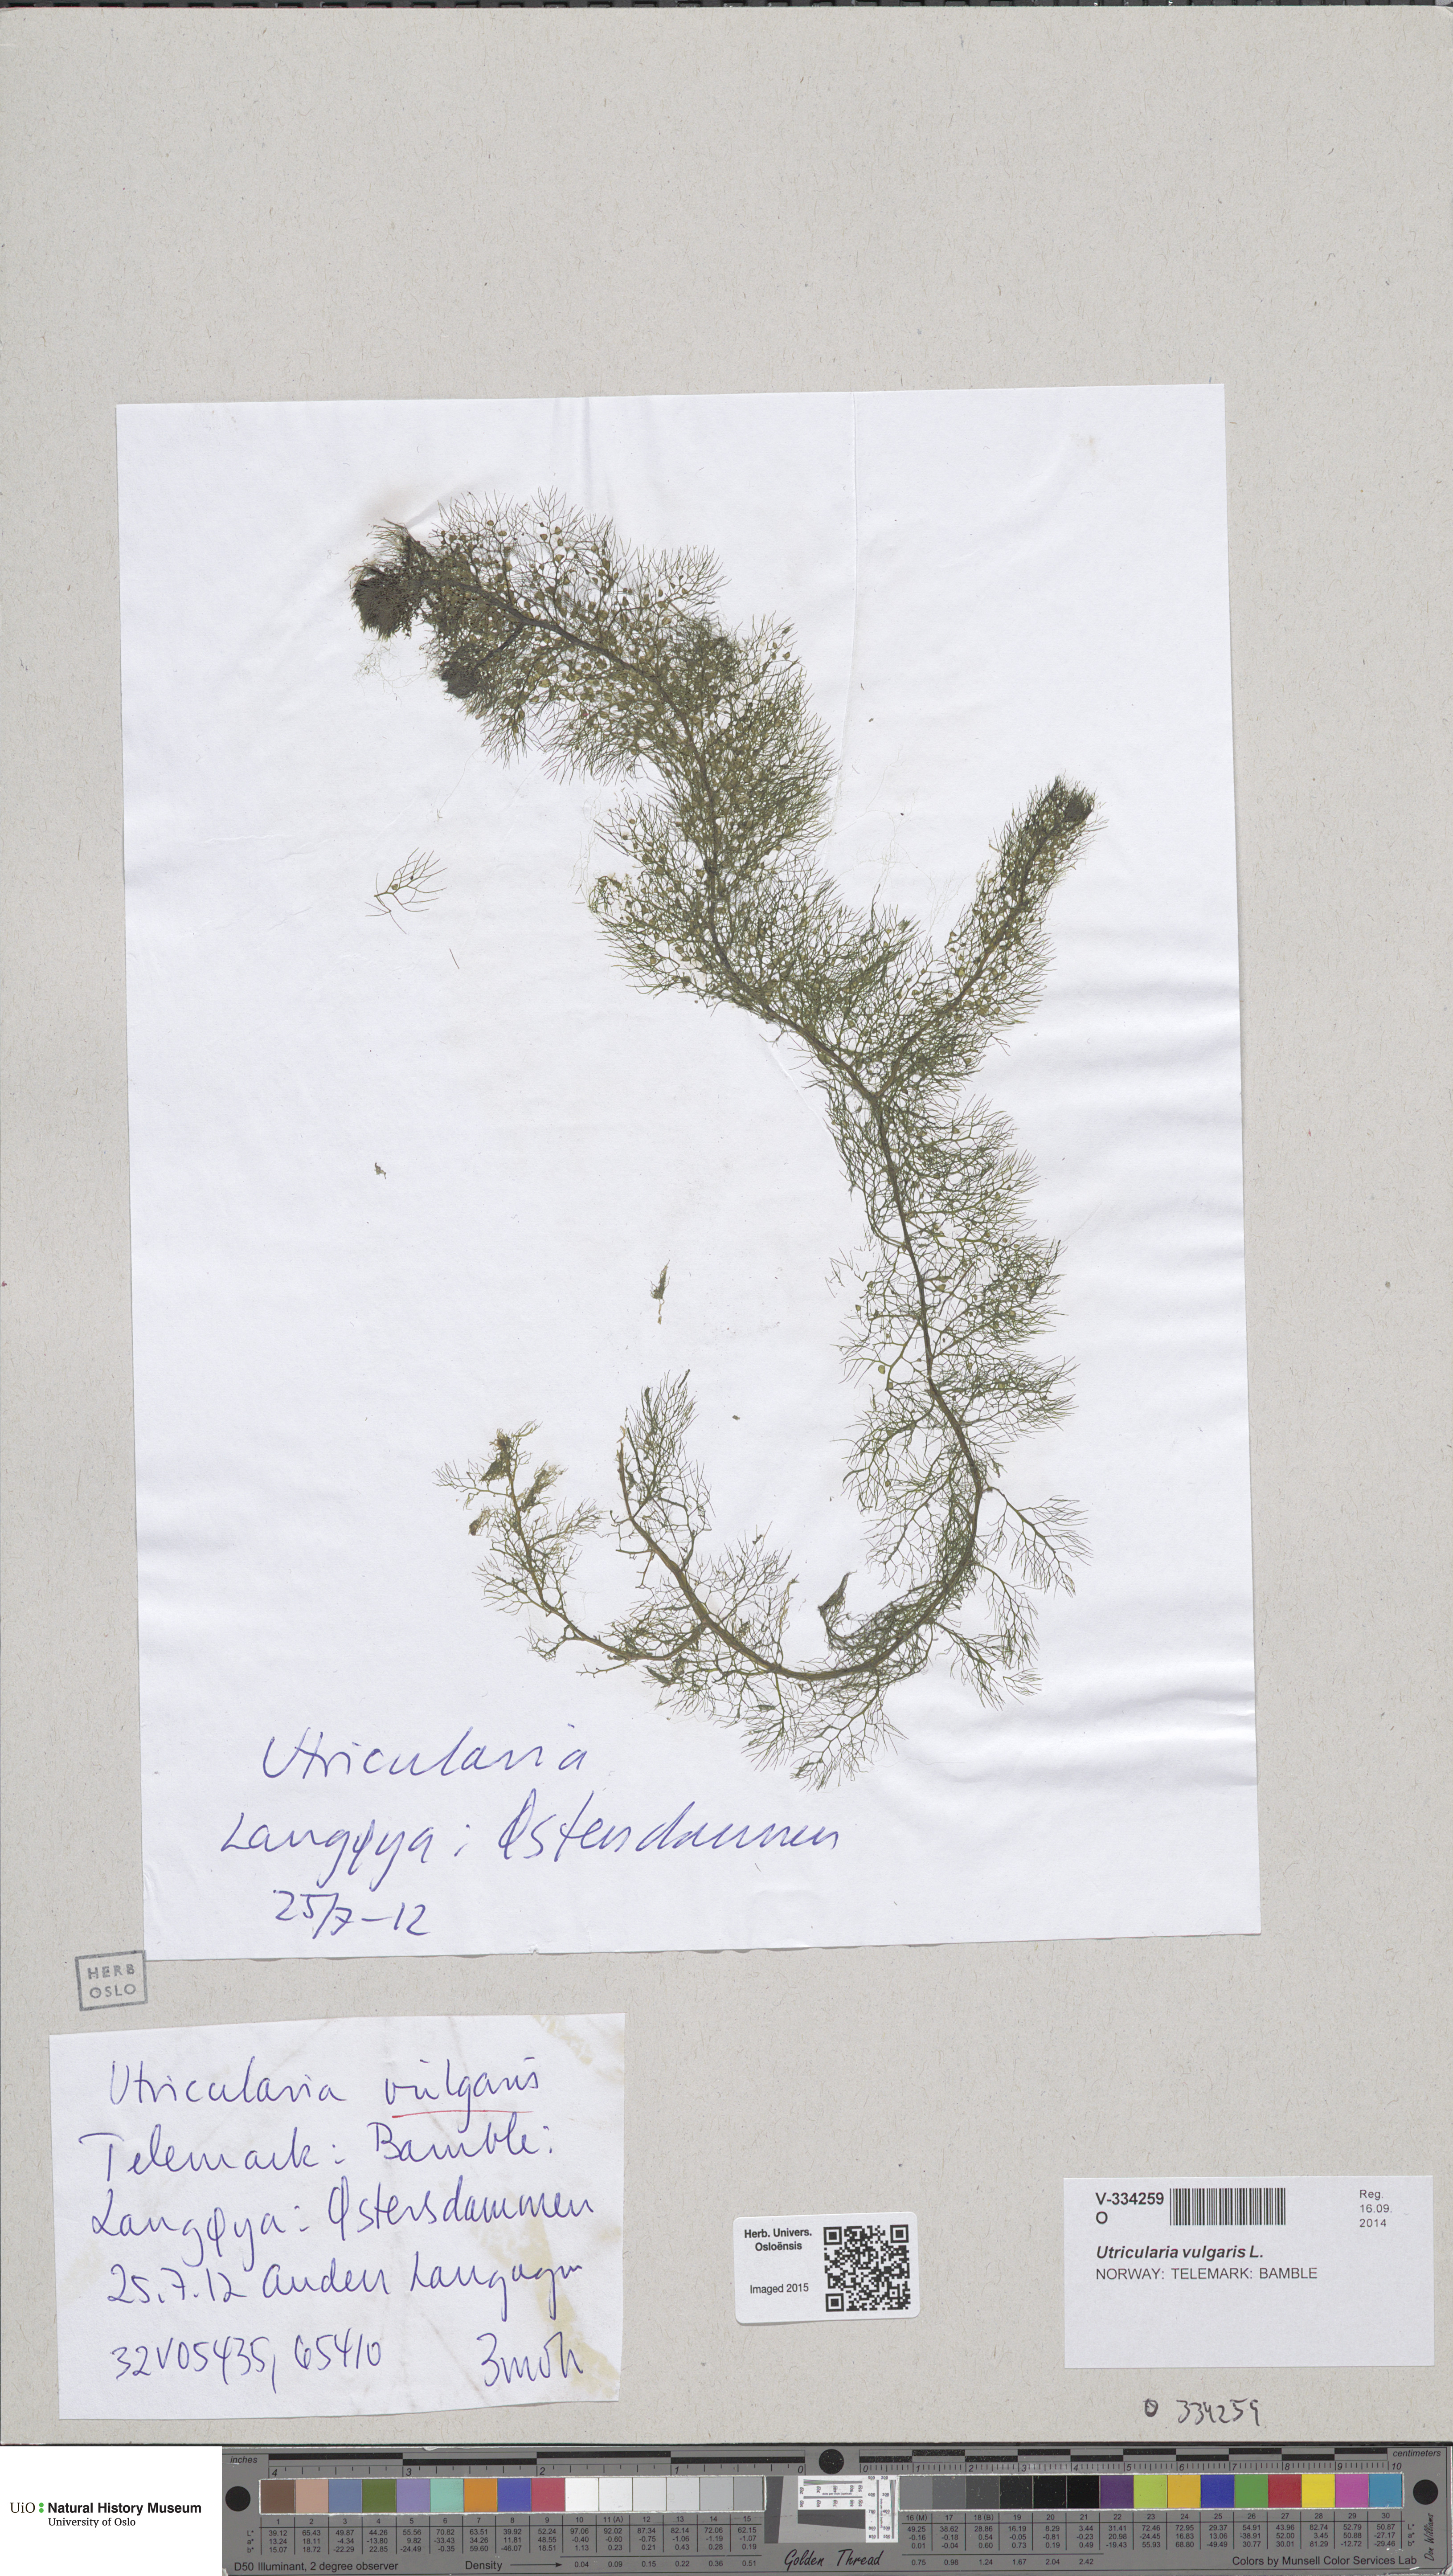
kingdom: Plantae
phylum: Tracheophyta
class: Magnoliopsida
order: Lamiales
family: Lentibulariaceae
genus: Utricularia
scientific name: Utricularia vulgaris
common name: Greater bladderwort
